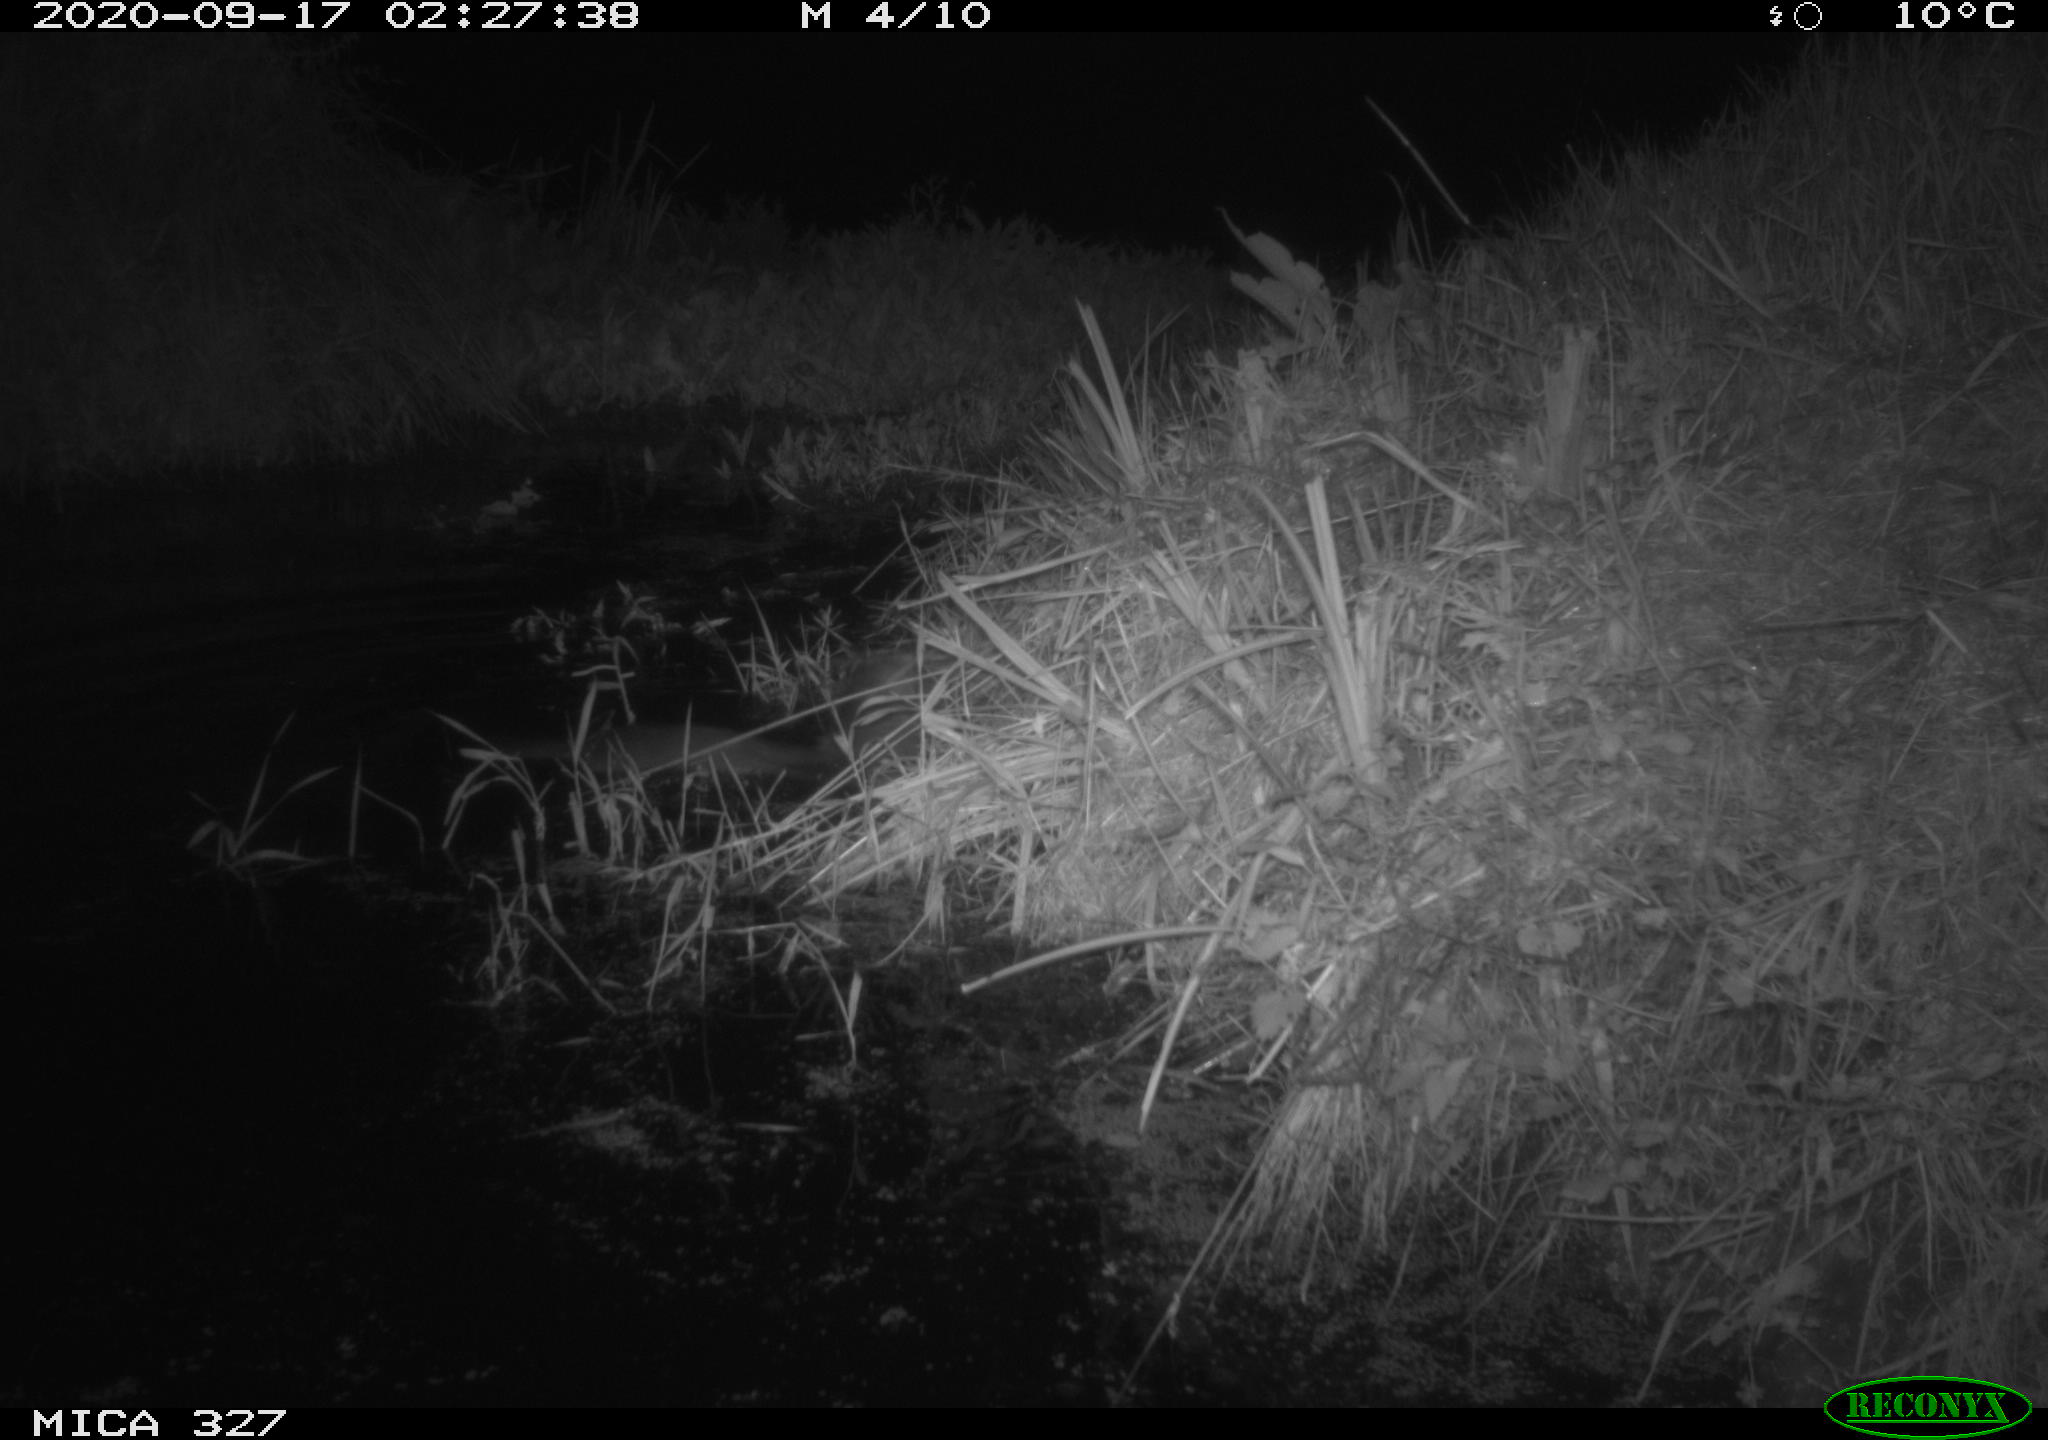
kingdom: Animalia
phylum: Chordata
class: Mammalia
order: Carnivora
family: Mustelidae
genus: Lutra
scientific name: Lutra lutra
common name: European otter
